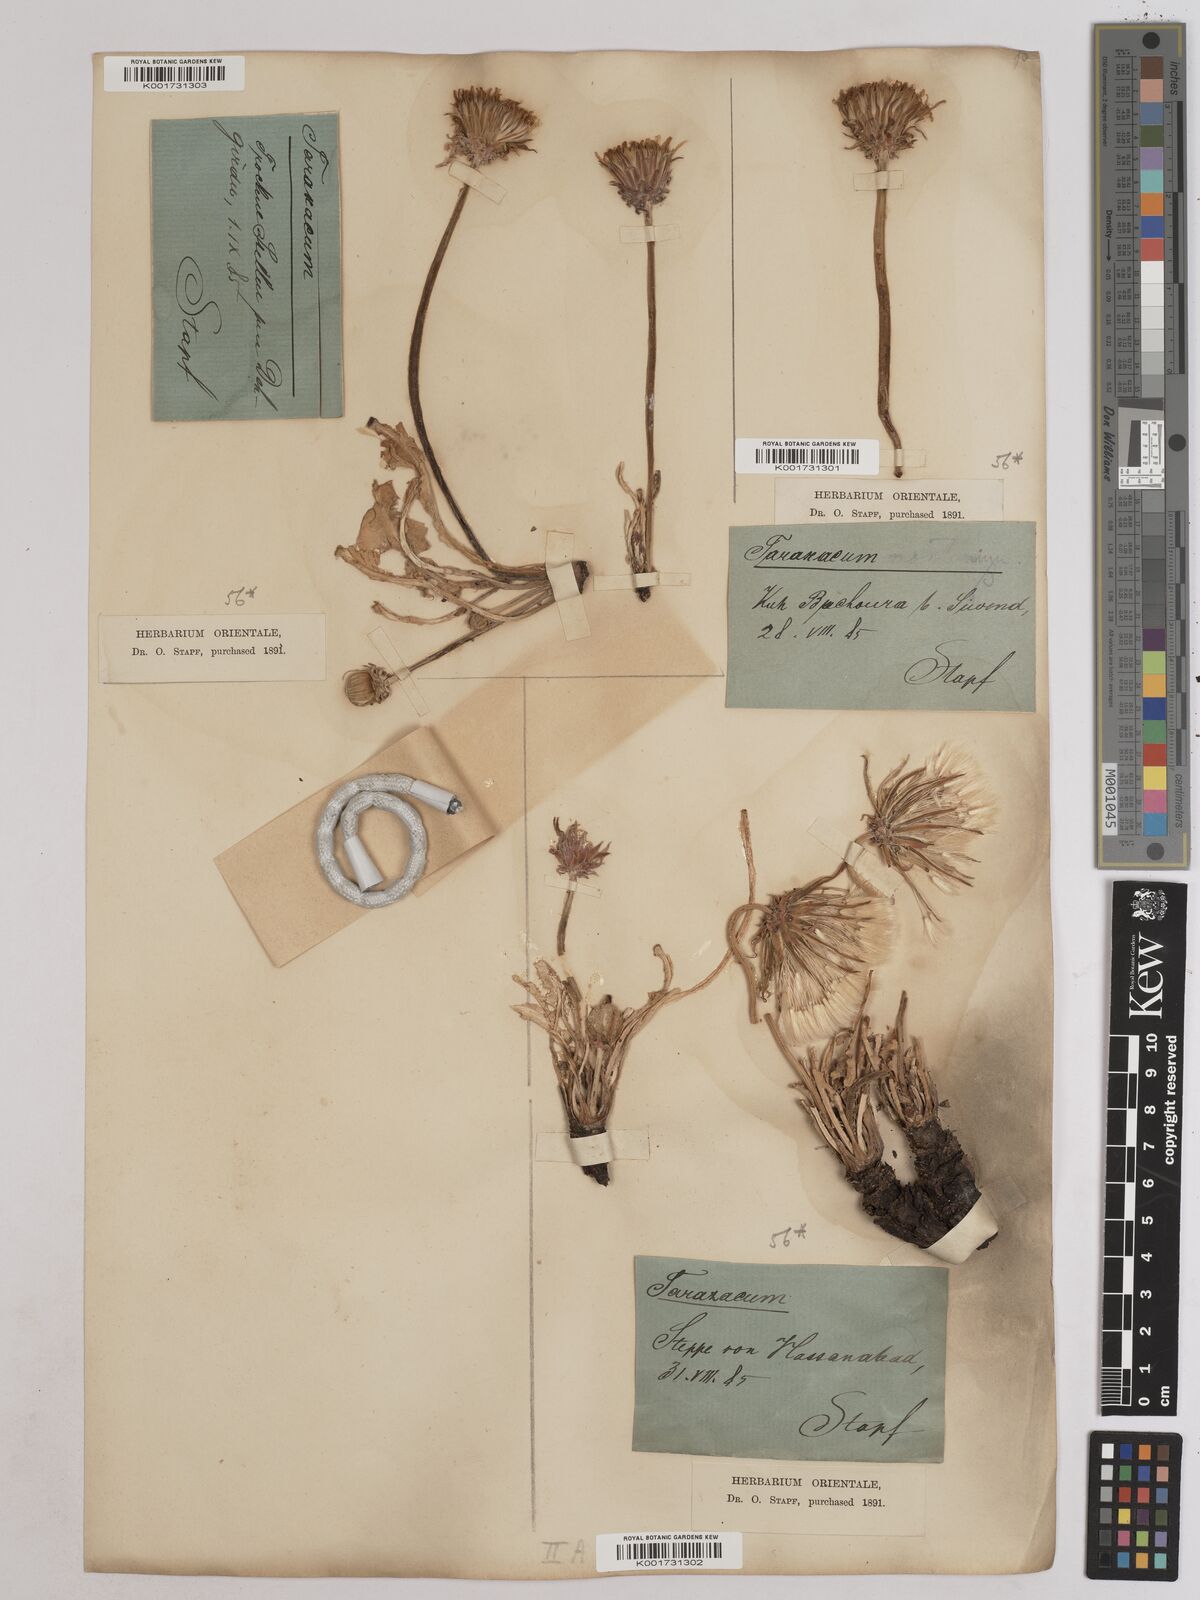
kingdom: Plantae
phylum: Tracheophyta
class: Magnoliopsida
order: Asterales
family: Asteraceae
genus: Taraxacum
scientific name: Taraxacum syriacum
